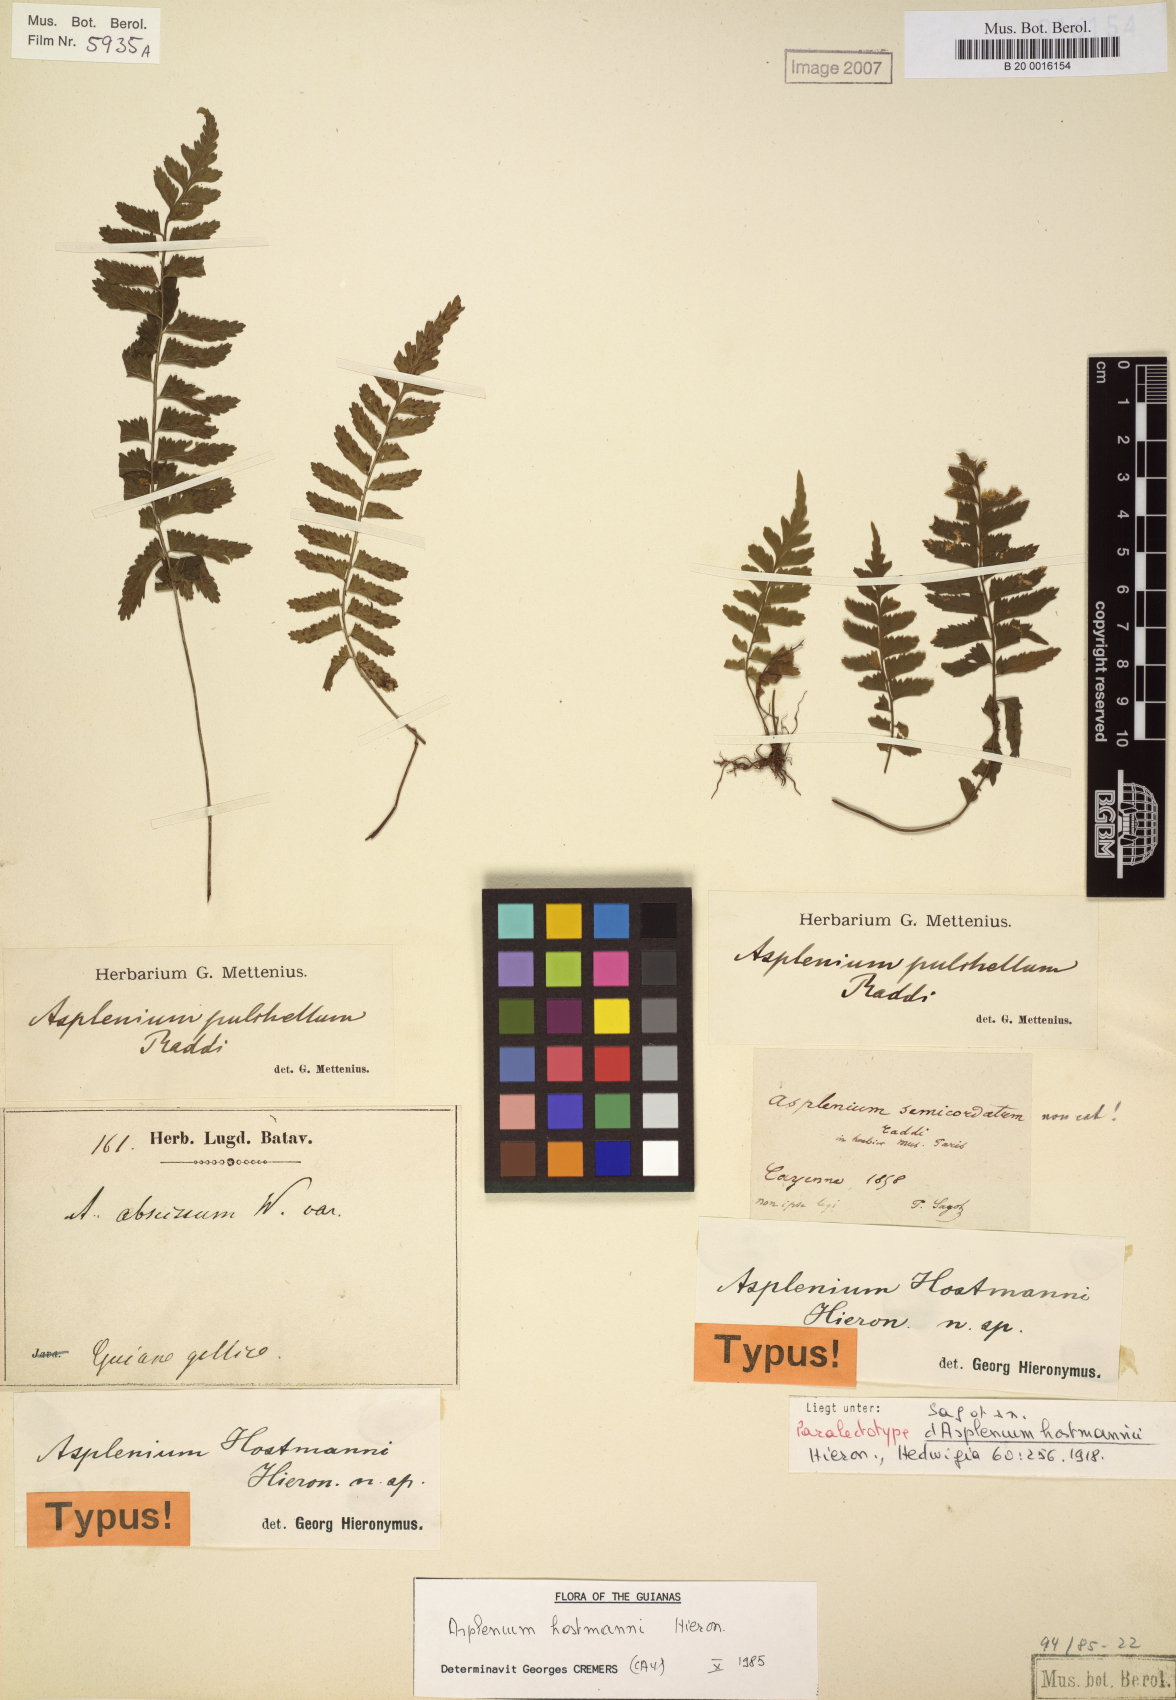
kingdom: Plantae
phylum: Tracheophyta
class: Polypodiopsida
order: Polypodiales
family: Aspleniaceae
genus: Asplenium
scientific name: Asplenium hostmannii
